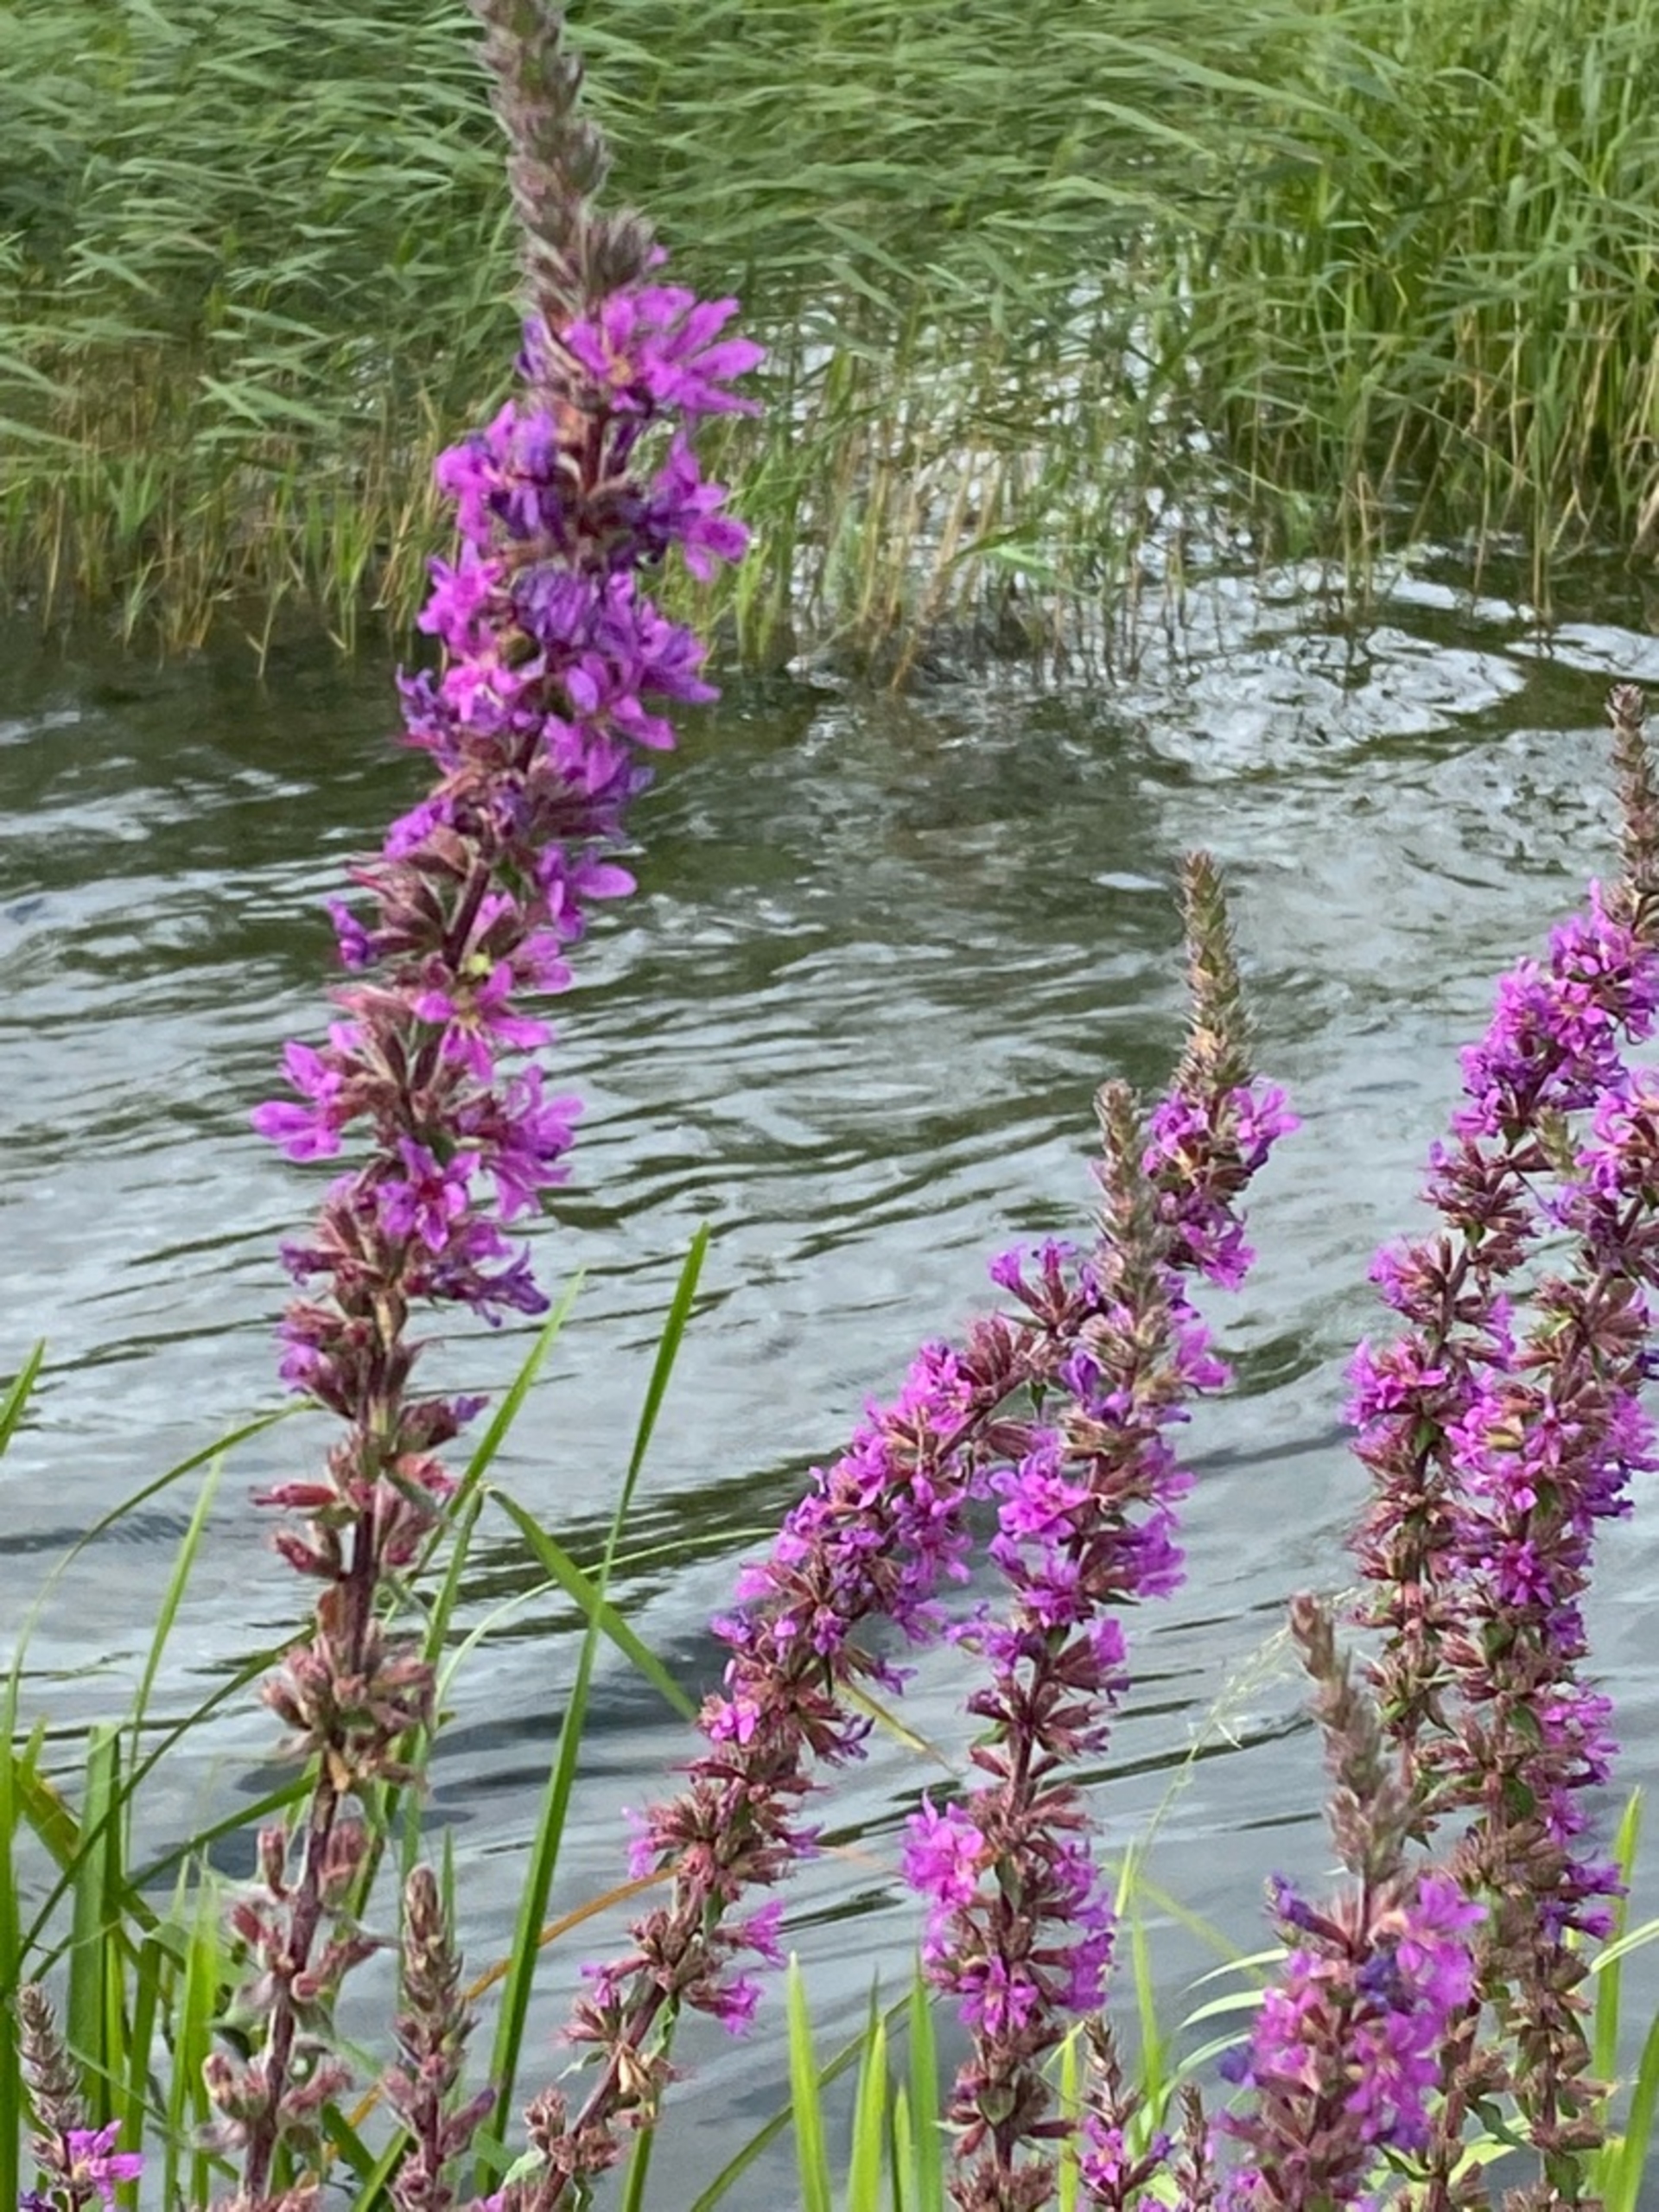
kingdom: Plantae
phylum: Tracheophyta
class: Magnoliopsida
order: Myrtales
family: Lythraceae
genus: Lythrum
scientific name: Lythrum salicaria
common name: Kattehale
